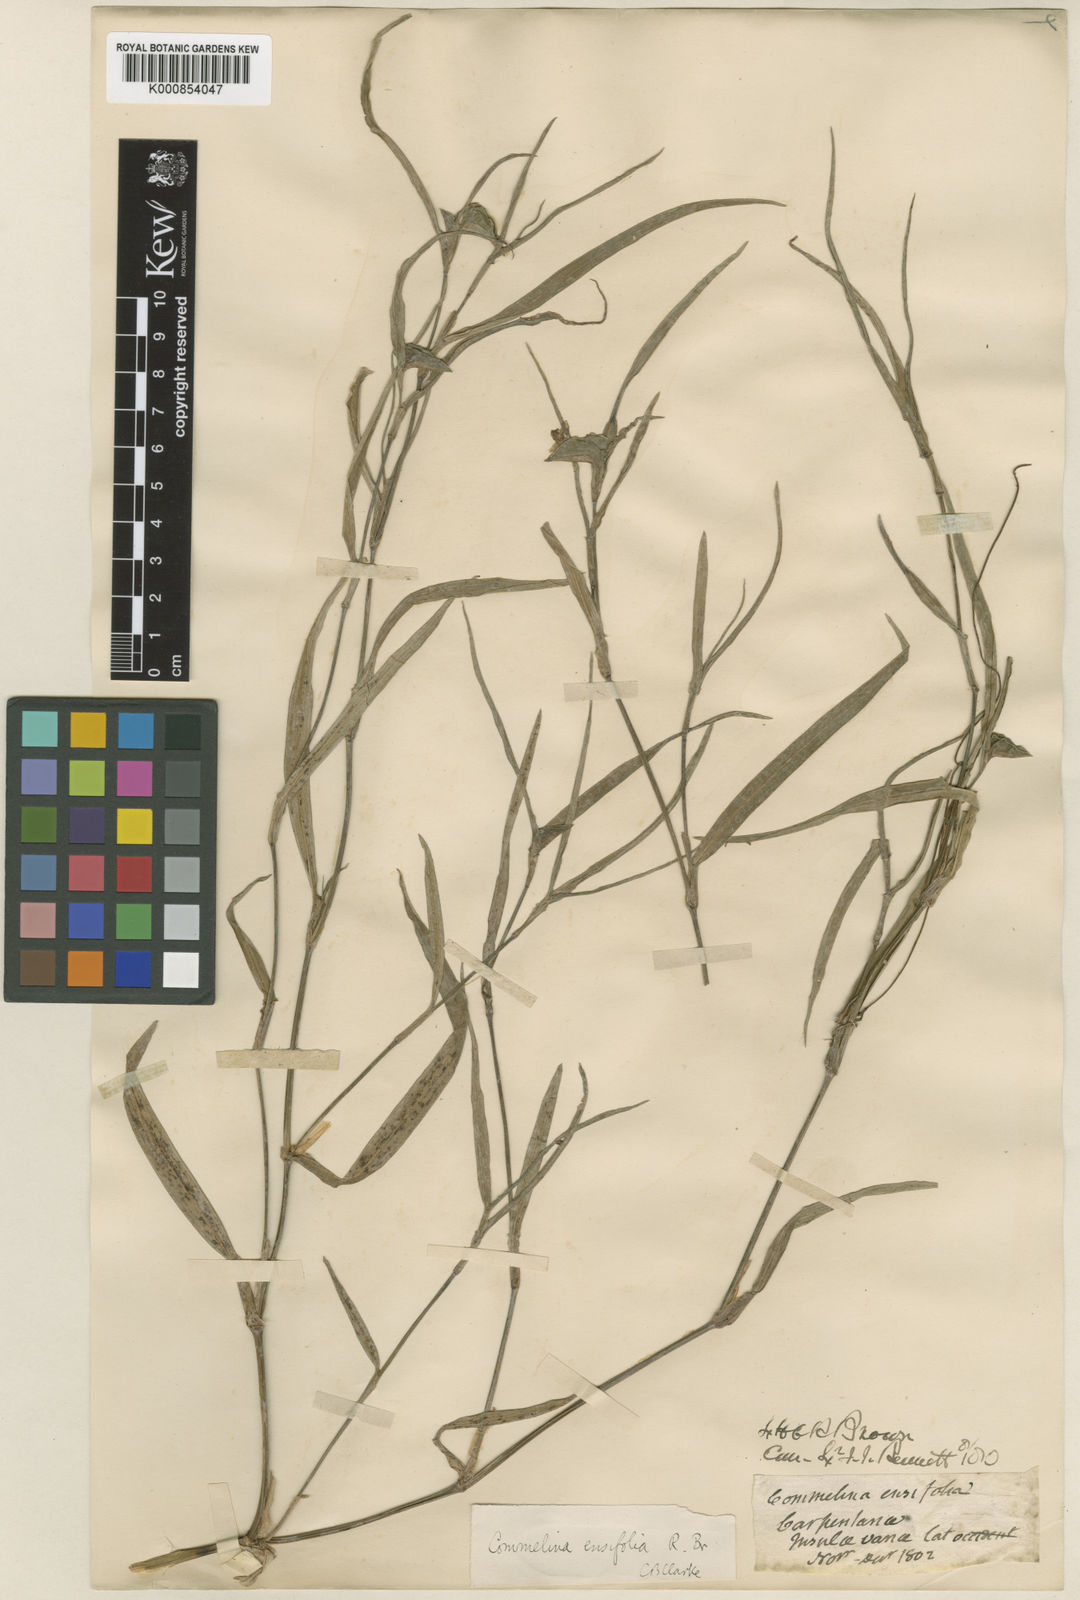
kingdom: Plantae
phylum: Tracheophyta
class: Liliopsida
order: Commelinales
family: Commelinaceae
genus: Commelina
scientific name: Commelina ensifolia
